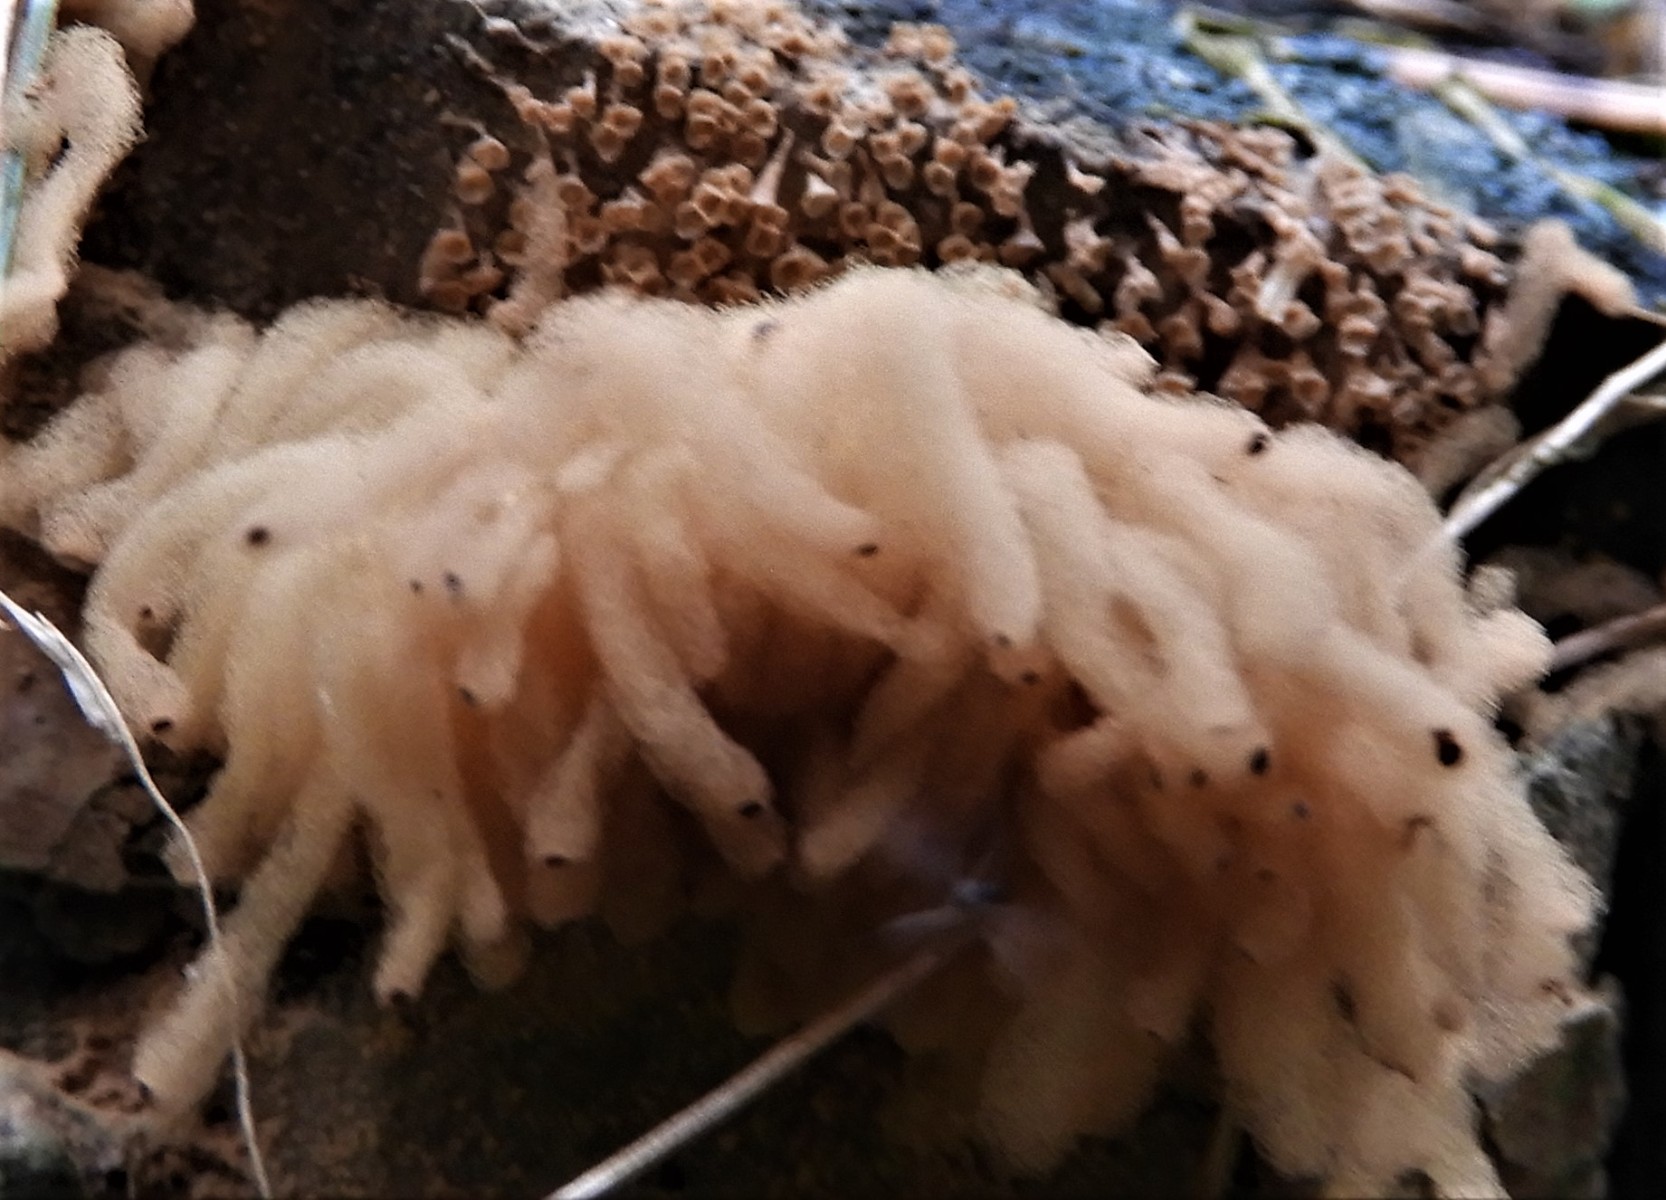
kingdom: Protozoa
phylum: Mycetozoa
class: Myxomycetes
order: Trichiales
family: Arcyriaceae
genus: Arcyria
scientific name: Arcyria obvelata
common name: okkergul skålsvøb
